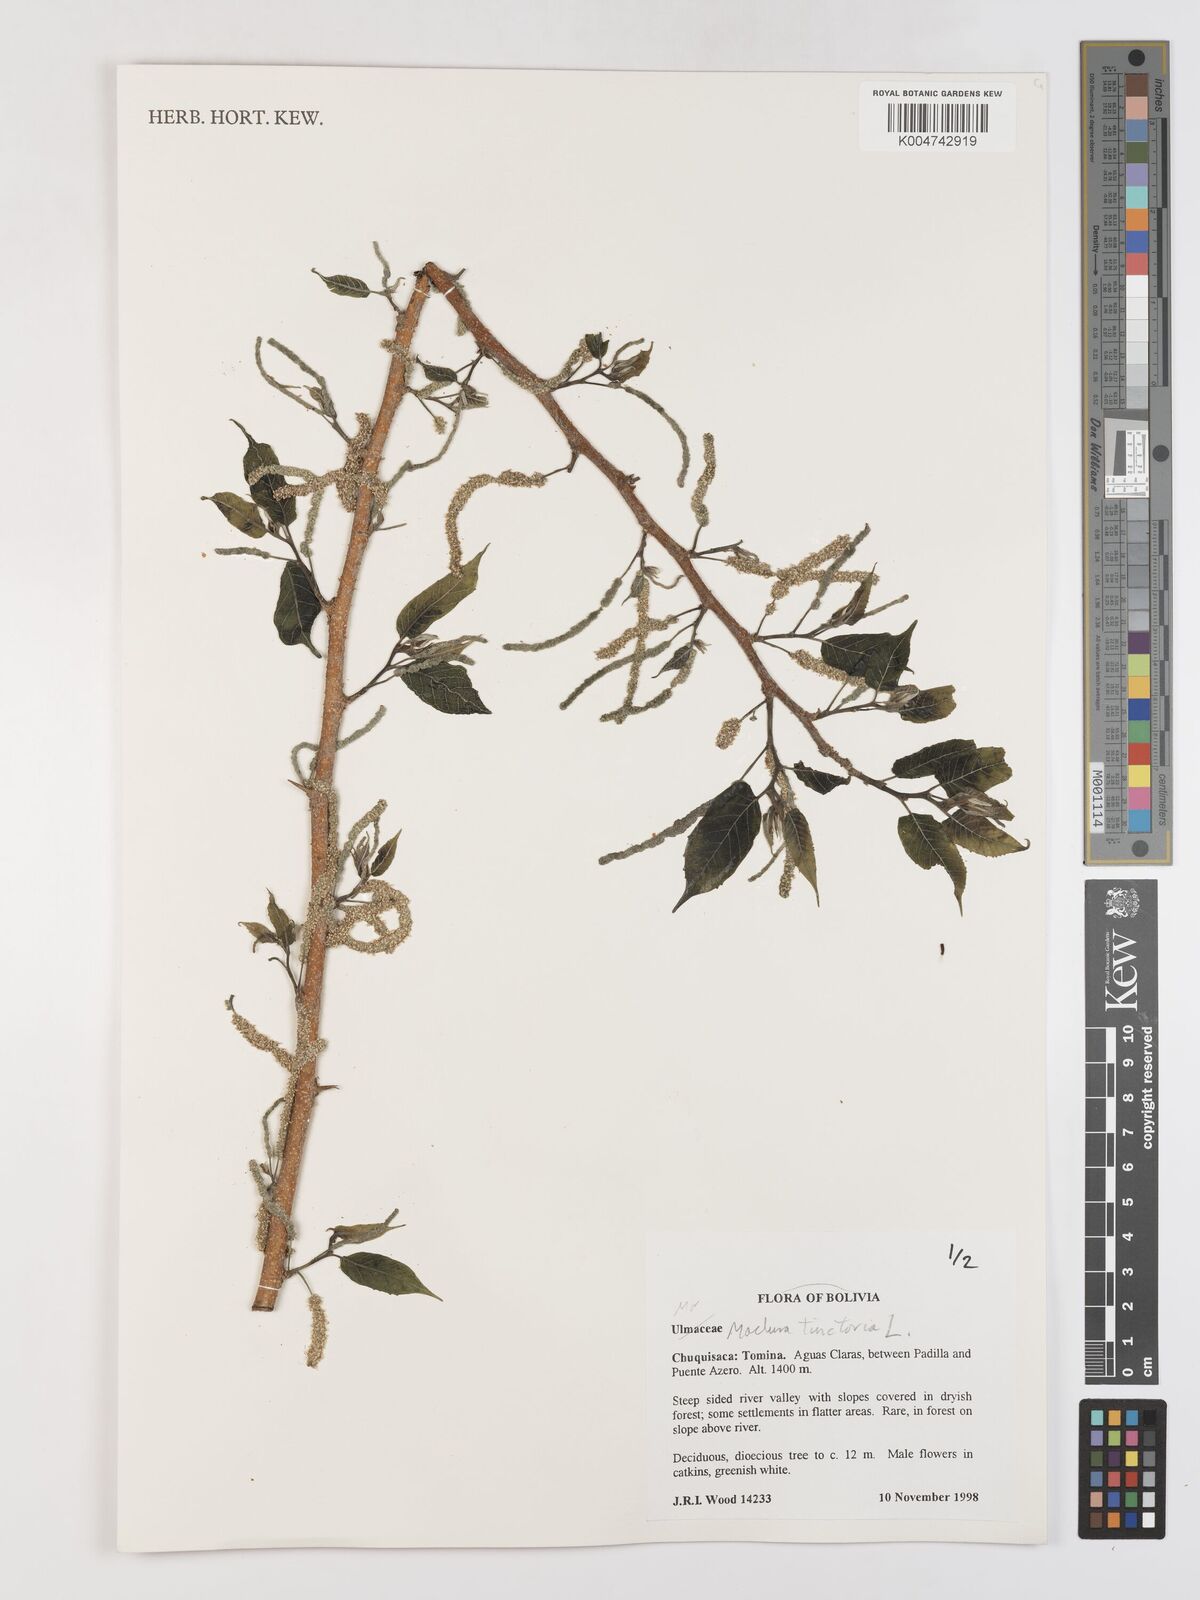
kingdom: Plantae
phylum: Tracheophyta
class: Magnoliopsida
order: Rosales
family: Moraceae
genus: Maclura
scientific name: Maclura tinctoria
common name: Old fustic
